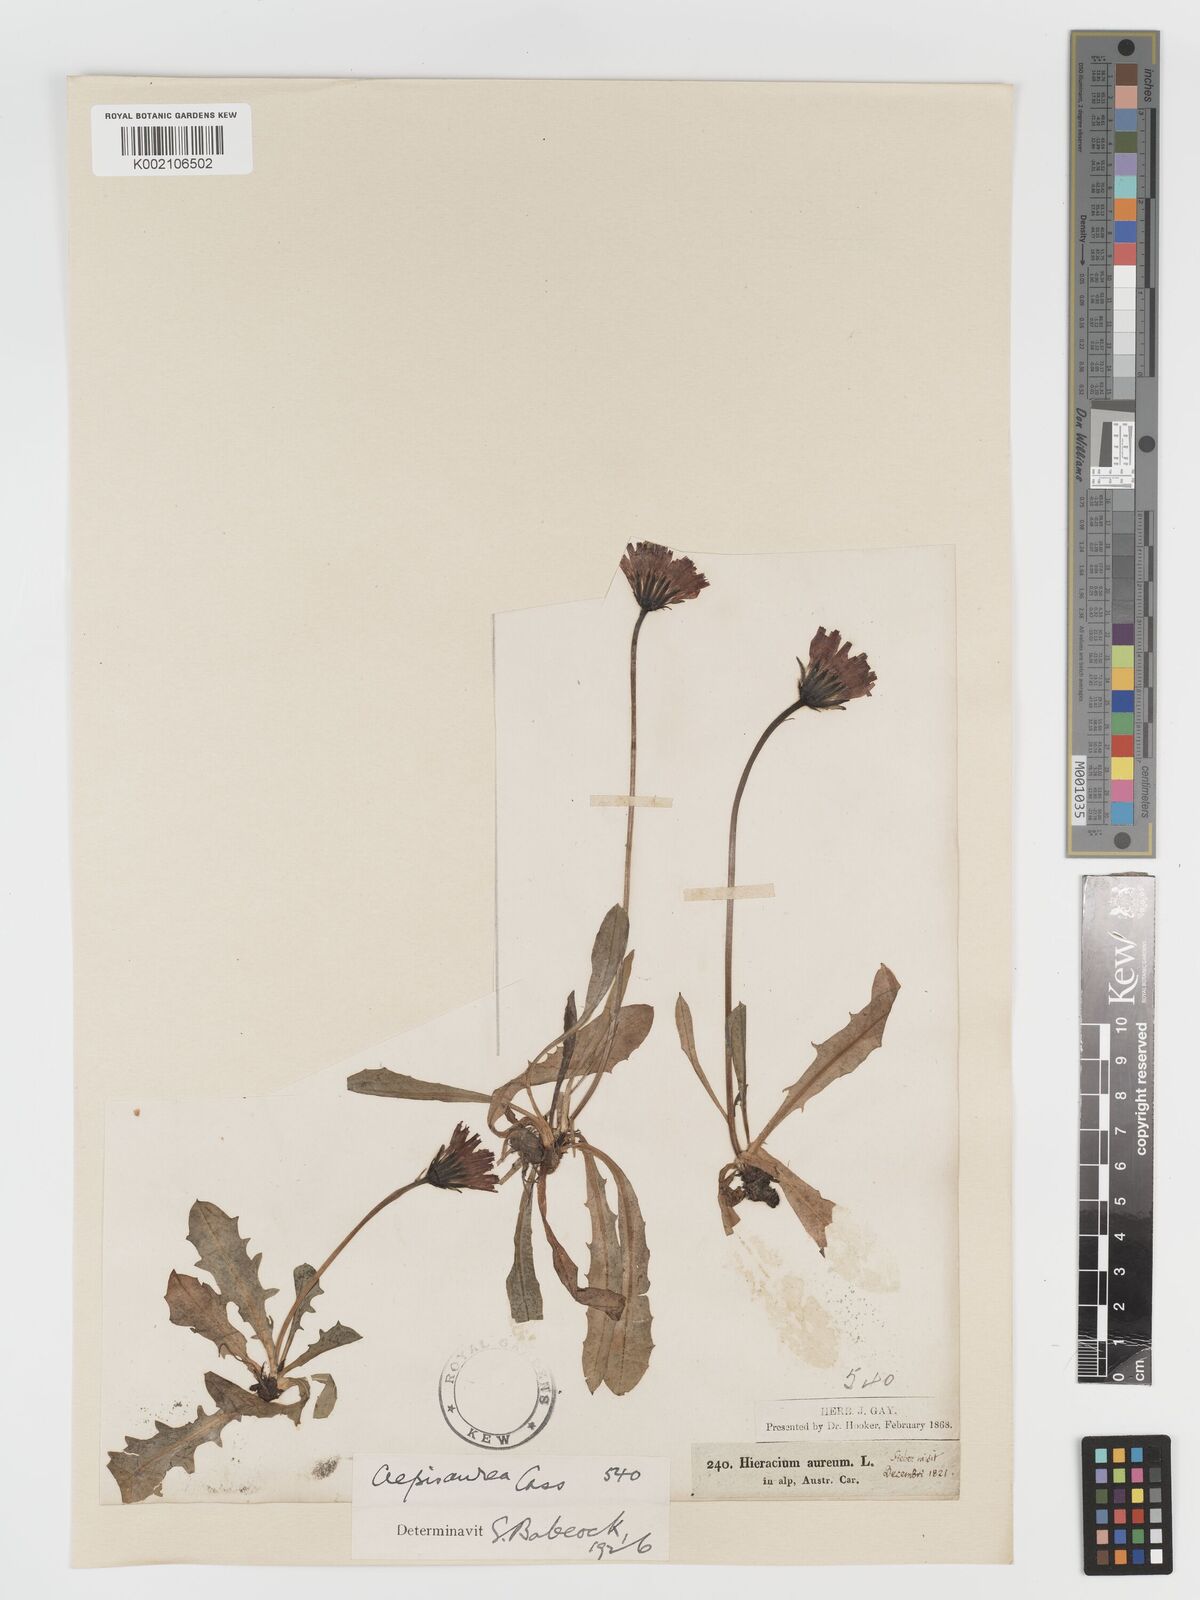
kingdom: Plantae
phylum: Tracheophyta
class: Magnoliopsida
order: Asterales
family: Asteraceae
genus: Crepis
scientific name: Crepis aurea
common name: Golden hawk's-beard
